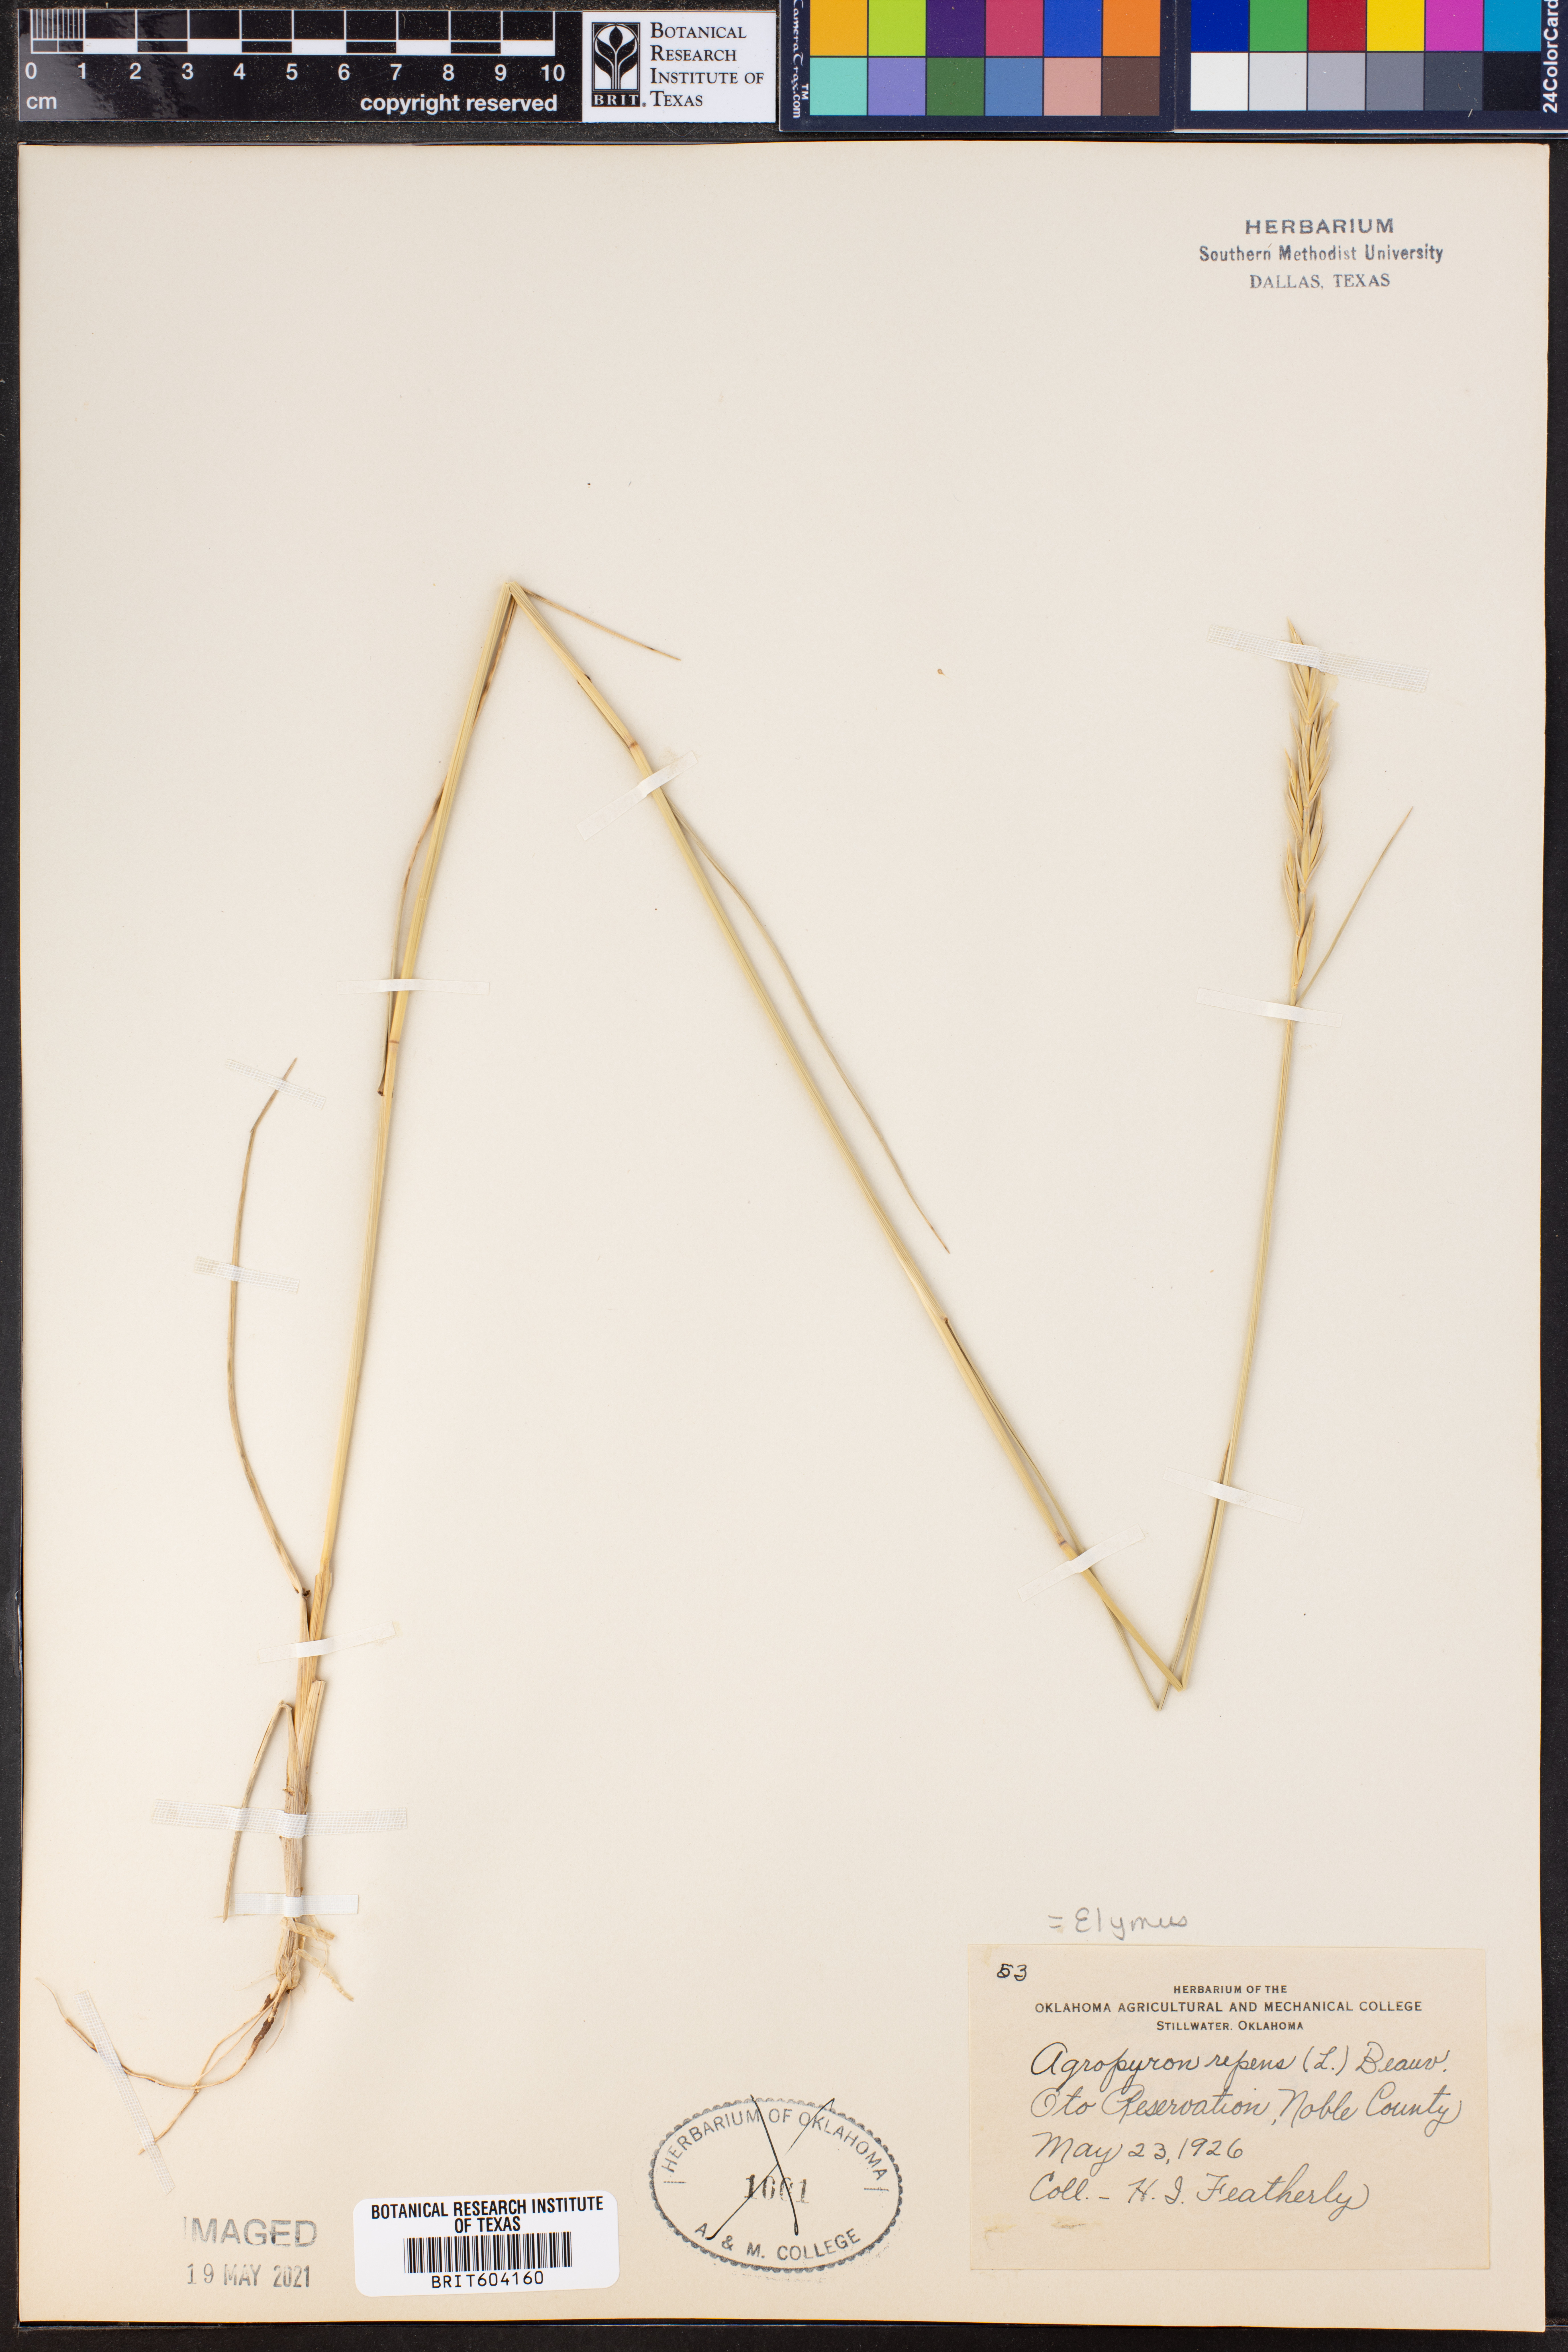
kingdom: Plantae
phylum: Tracheophyta
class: Liliopsida
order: Poales
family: Poaceae
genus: Elymus
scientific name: Elymus
